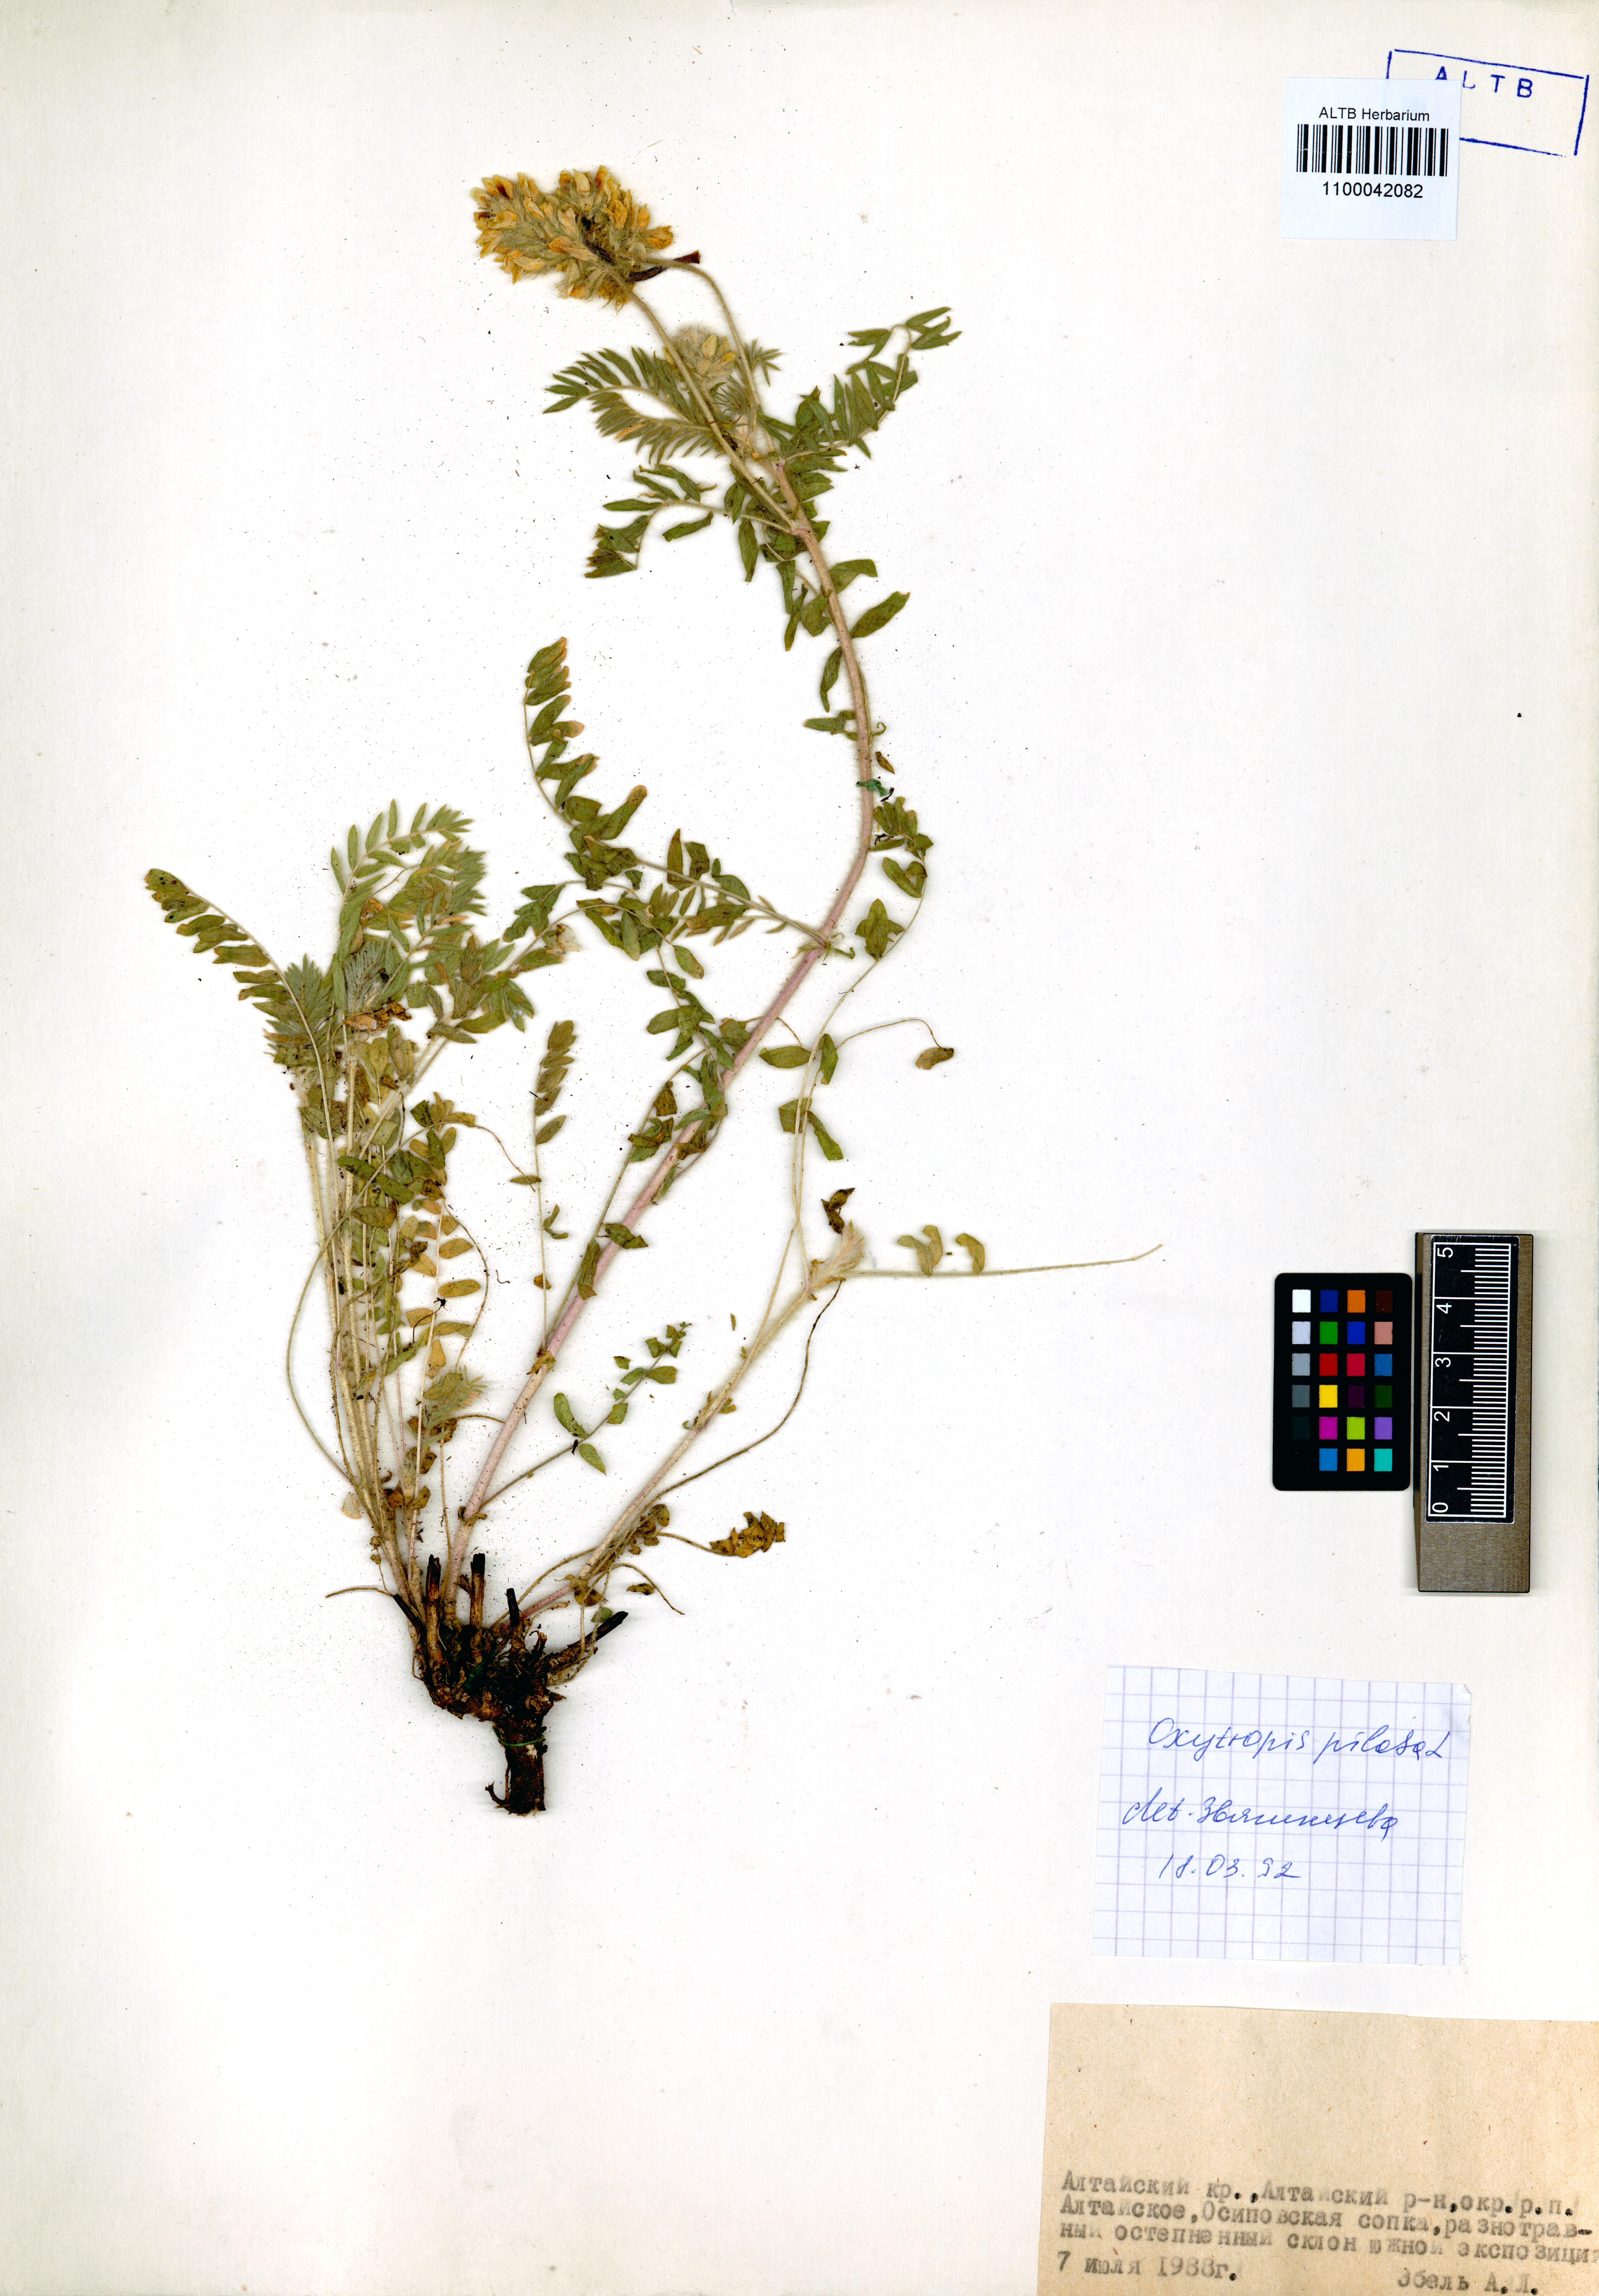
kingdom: Plantae
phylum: Tracheophyta
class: Magnoliopsida
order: Fabales
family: Fabaceae
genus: Oxytropis
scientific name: Oxytropis pilosa
